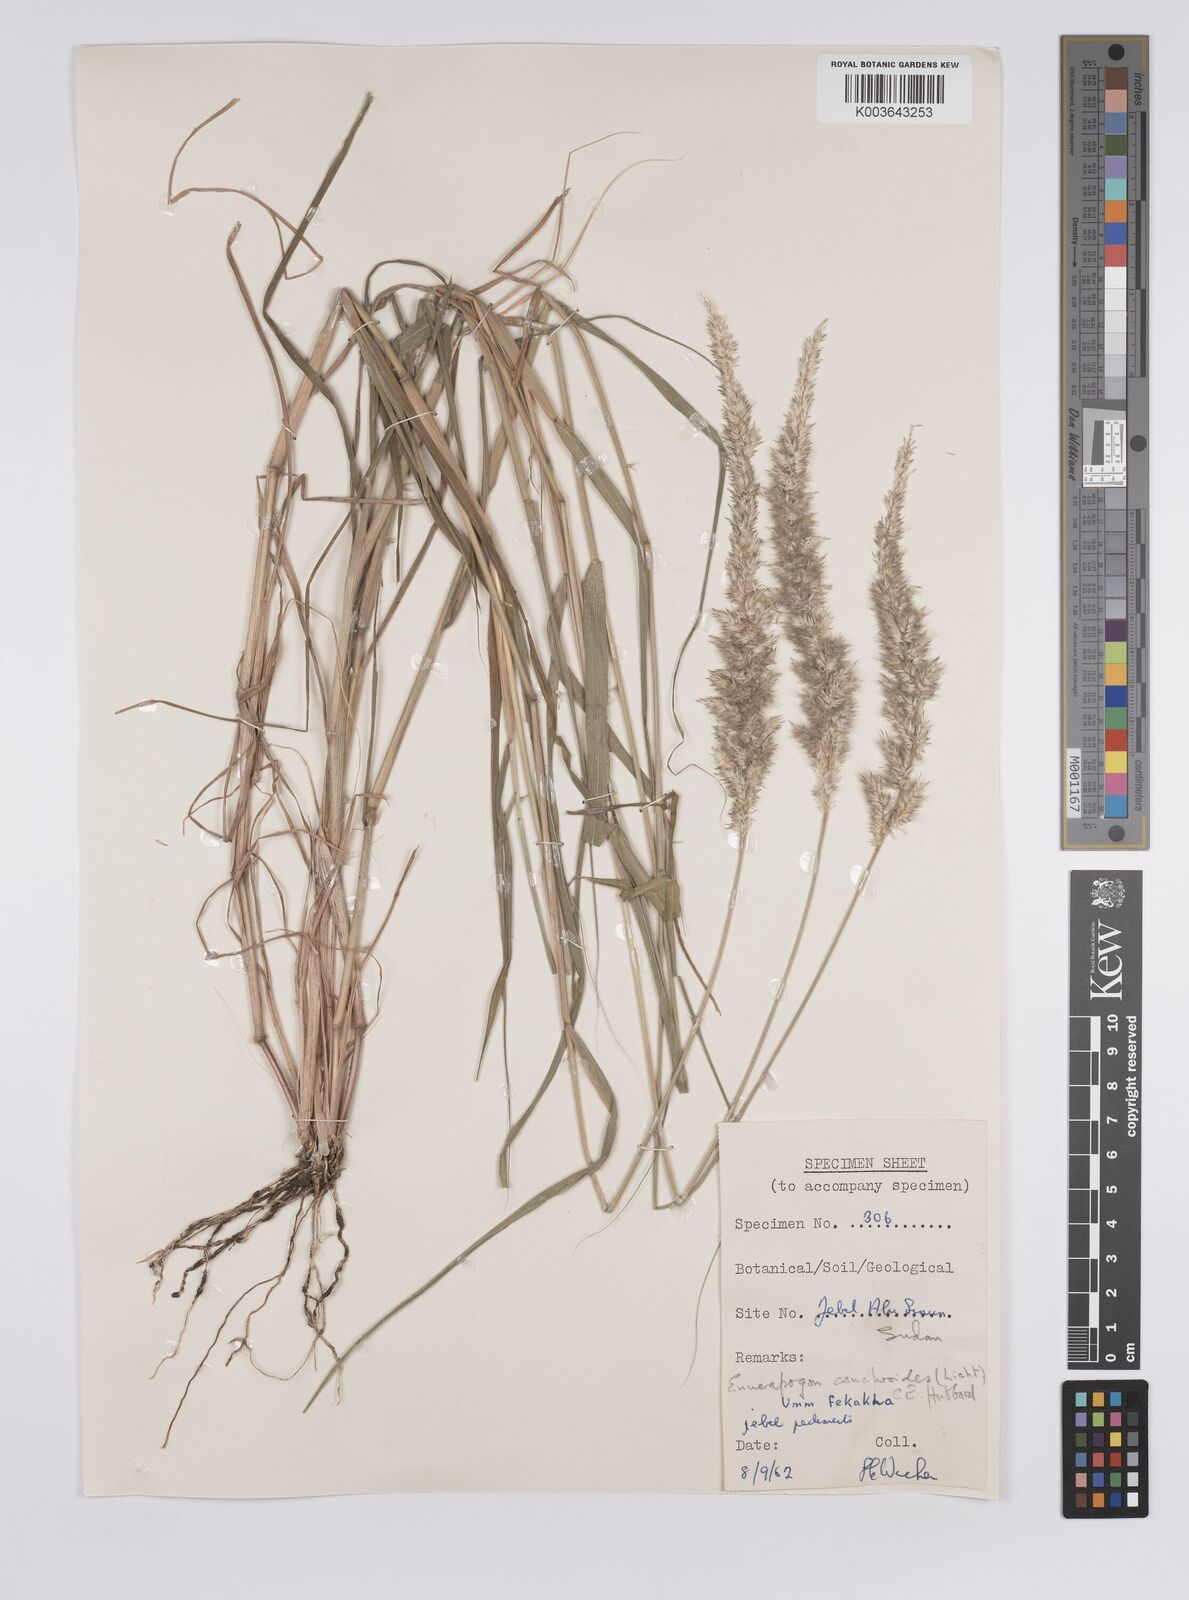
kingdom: Plantae
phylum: Tracheophyta
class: Liliopsida
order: Poales
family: Poaceae
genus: Enneapogon
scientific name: Enneapogon cenchroides
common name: Soft feather pappusgrass
